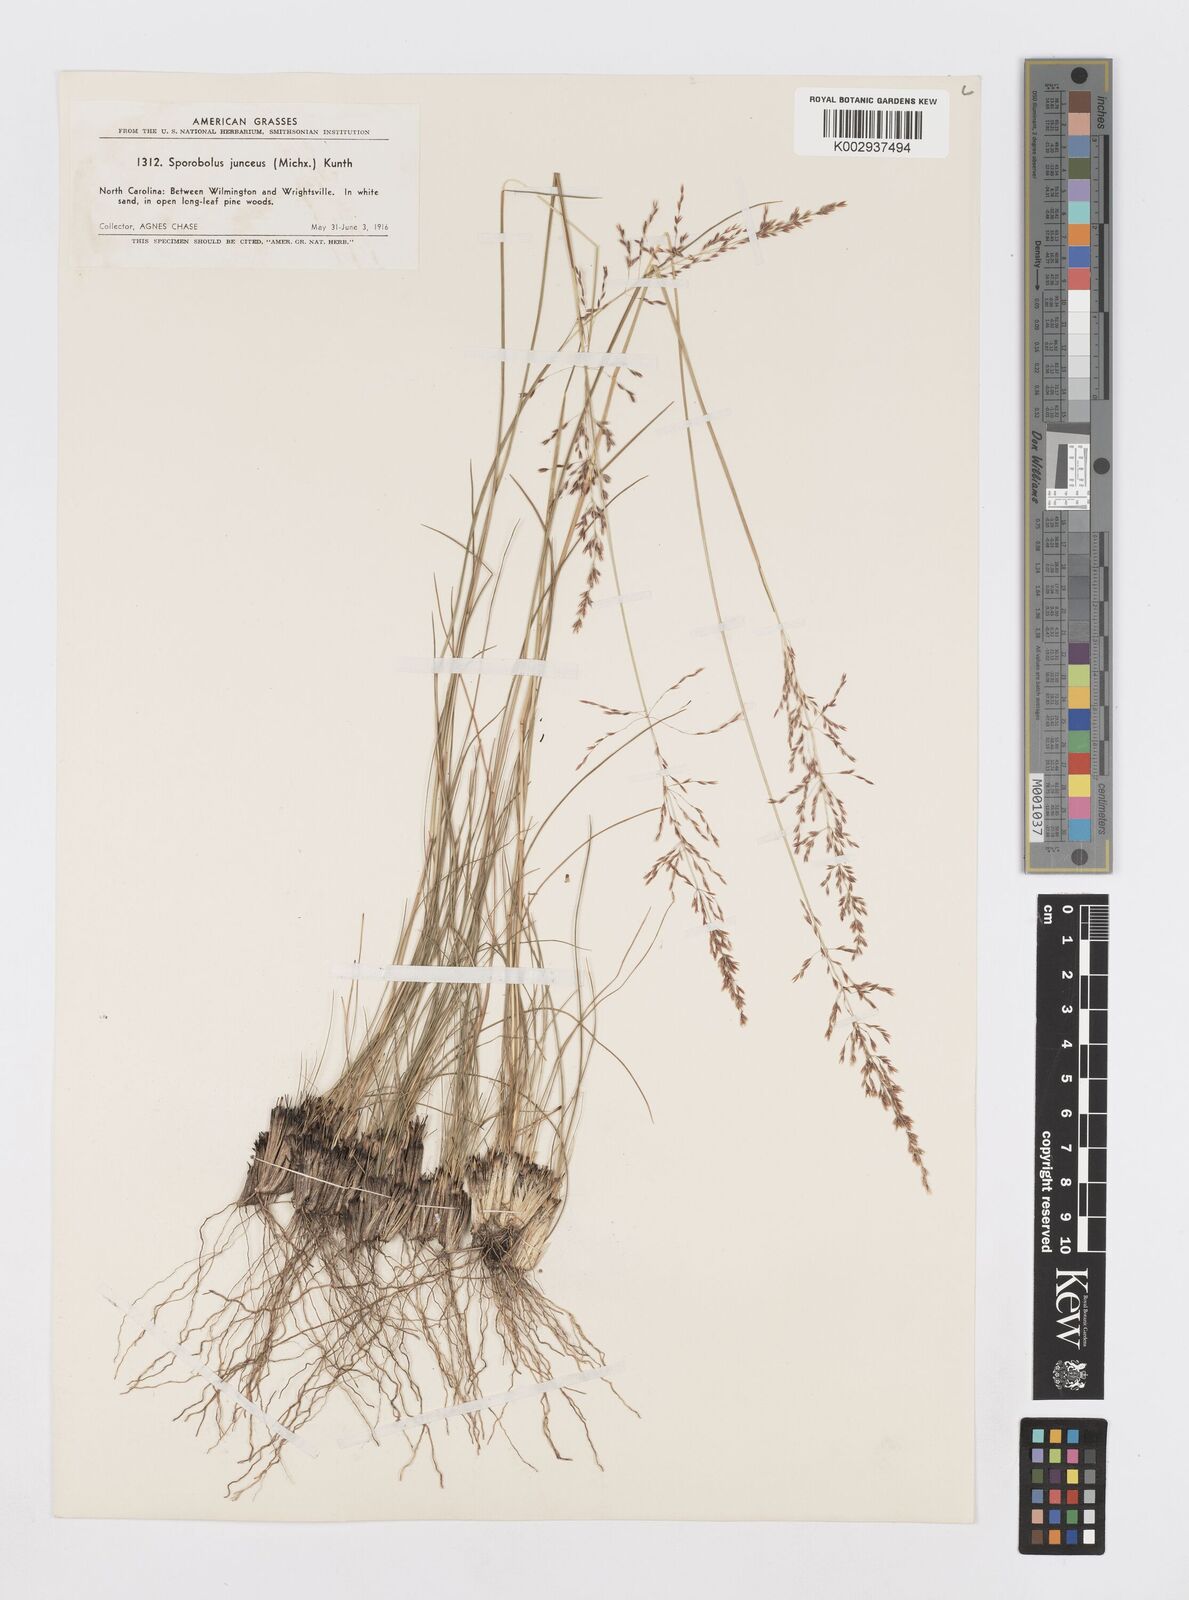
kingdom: Plantae
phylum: Tracheophyta
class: Liliopsida
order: Poales
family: Poaceae
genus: Sporobolus
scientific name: Sporobolus junceus
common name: Lizard grass
